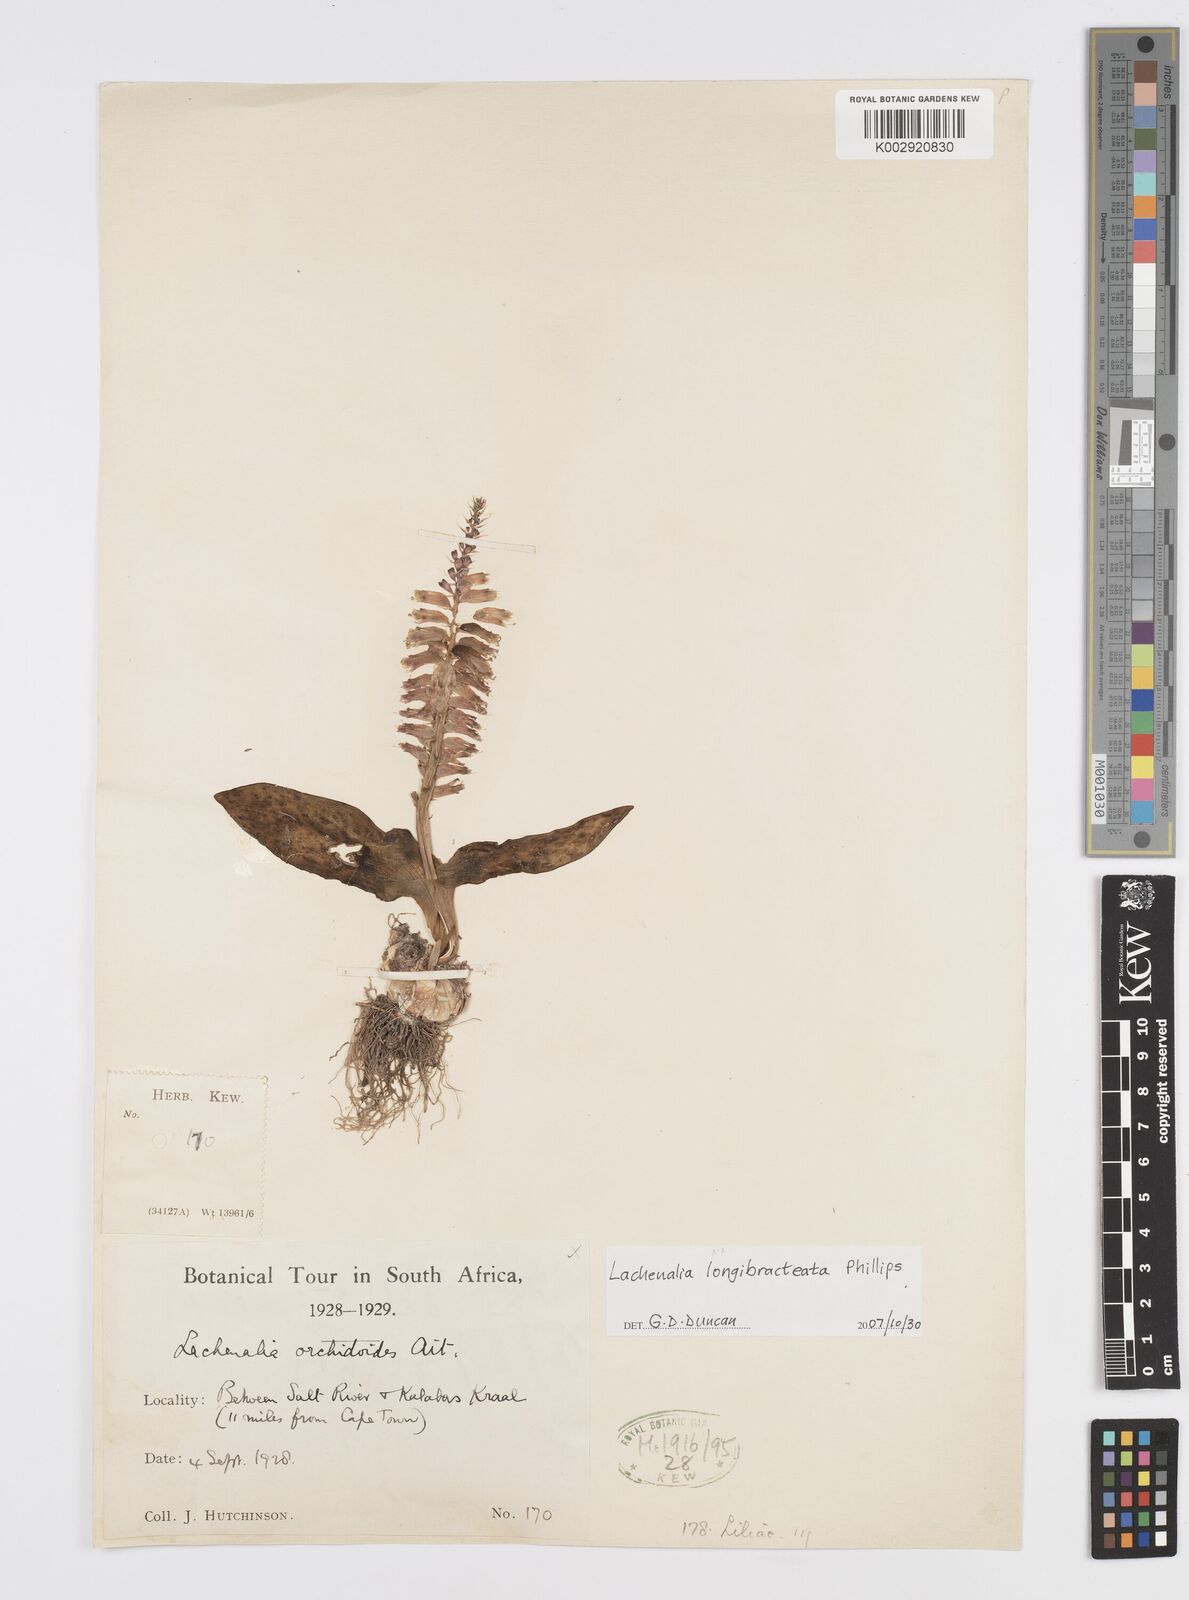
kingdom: Plantae
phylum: Tracheophyta
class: Liliopsida
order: Asparagales
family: Asparagaceae
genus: Lachenalia
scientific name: Lachenalia longibracteata
